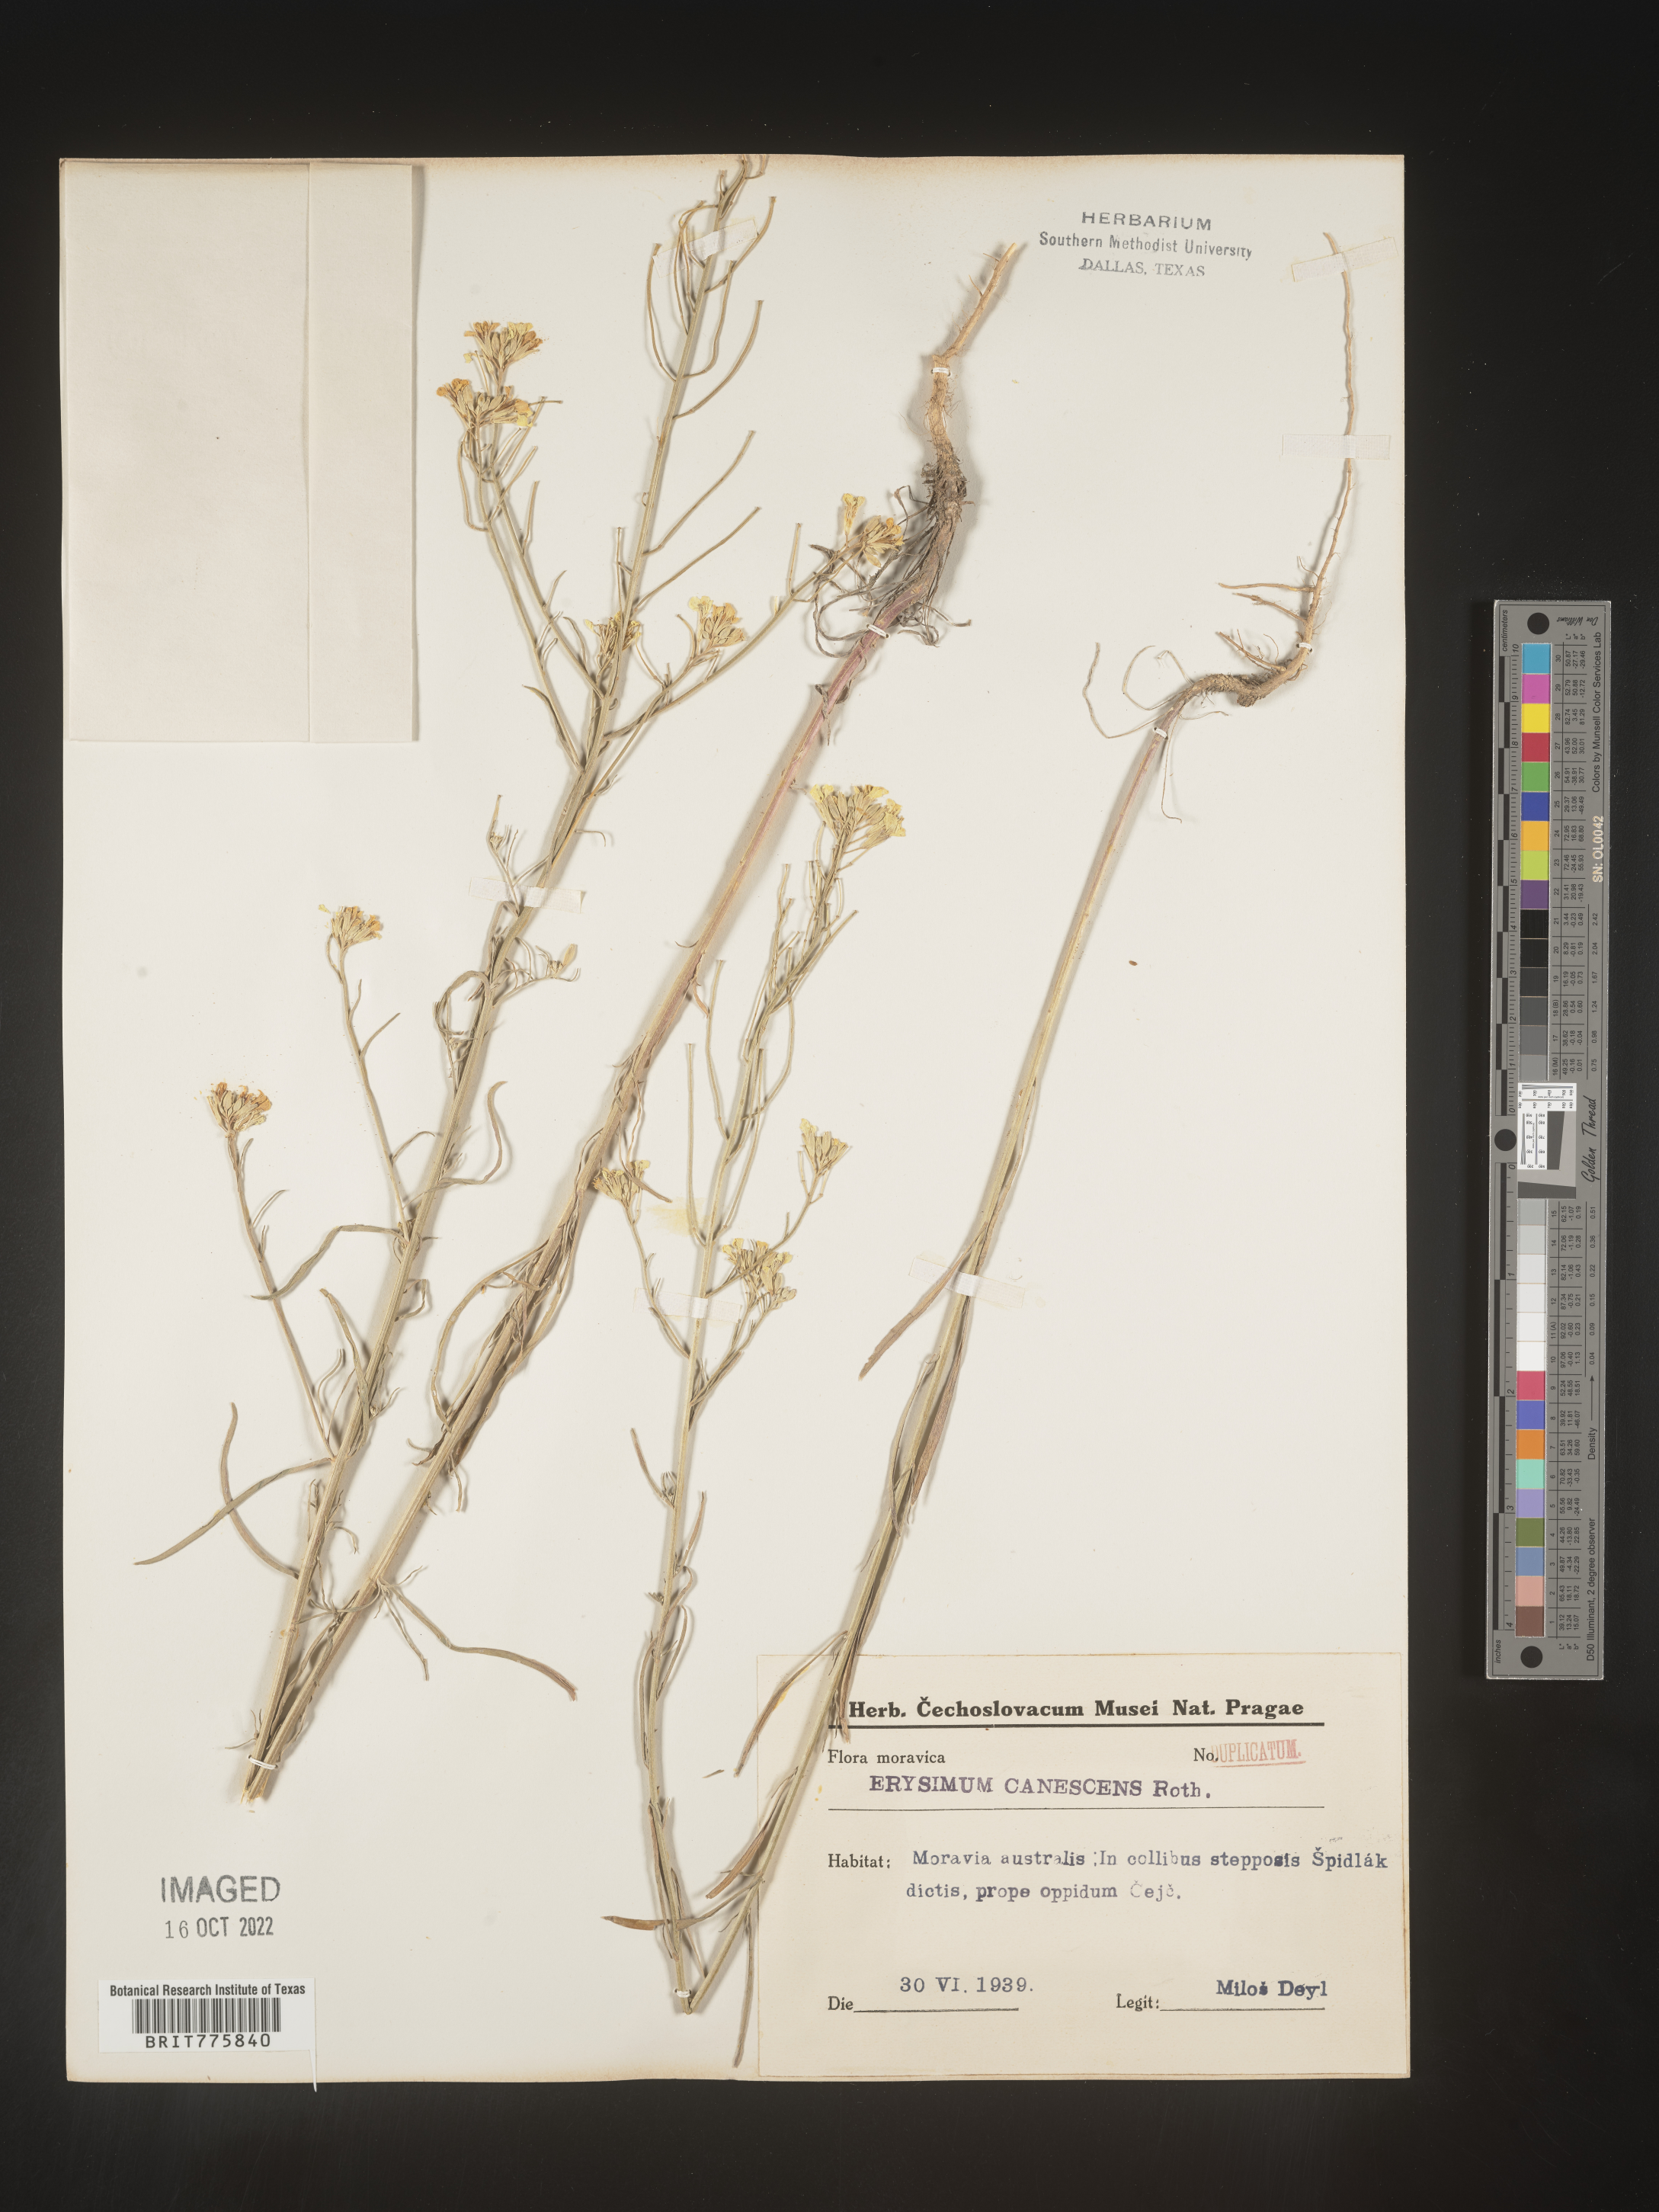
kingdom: Plantae
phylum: Tracheophyta
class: Magnoliopsida
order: Brassicales
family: Brassicaceae
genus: Erysimum
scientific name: Erysimum
